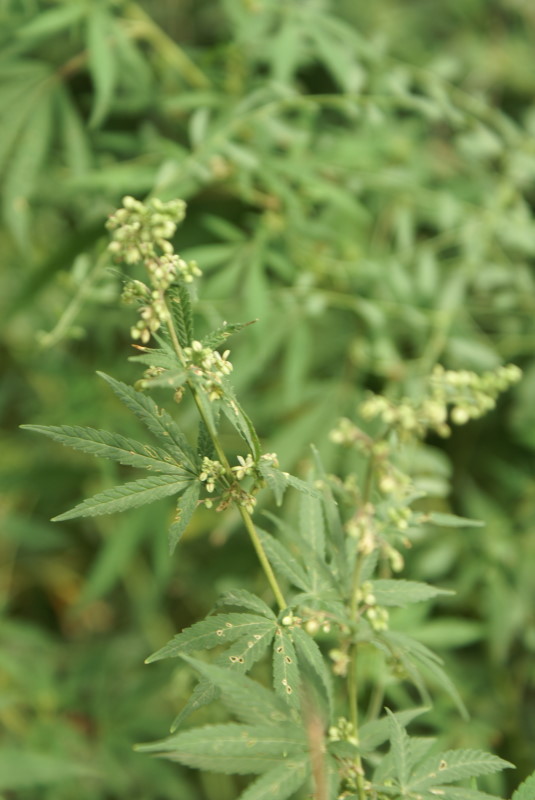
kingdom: Plantae
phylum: Tracheophyta
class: Magnoliopsida
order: Rosales
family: Cannabaceae
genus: Cannabis
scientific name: Cannabis sativa
